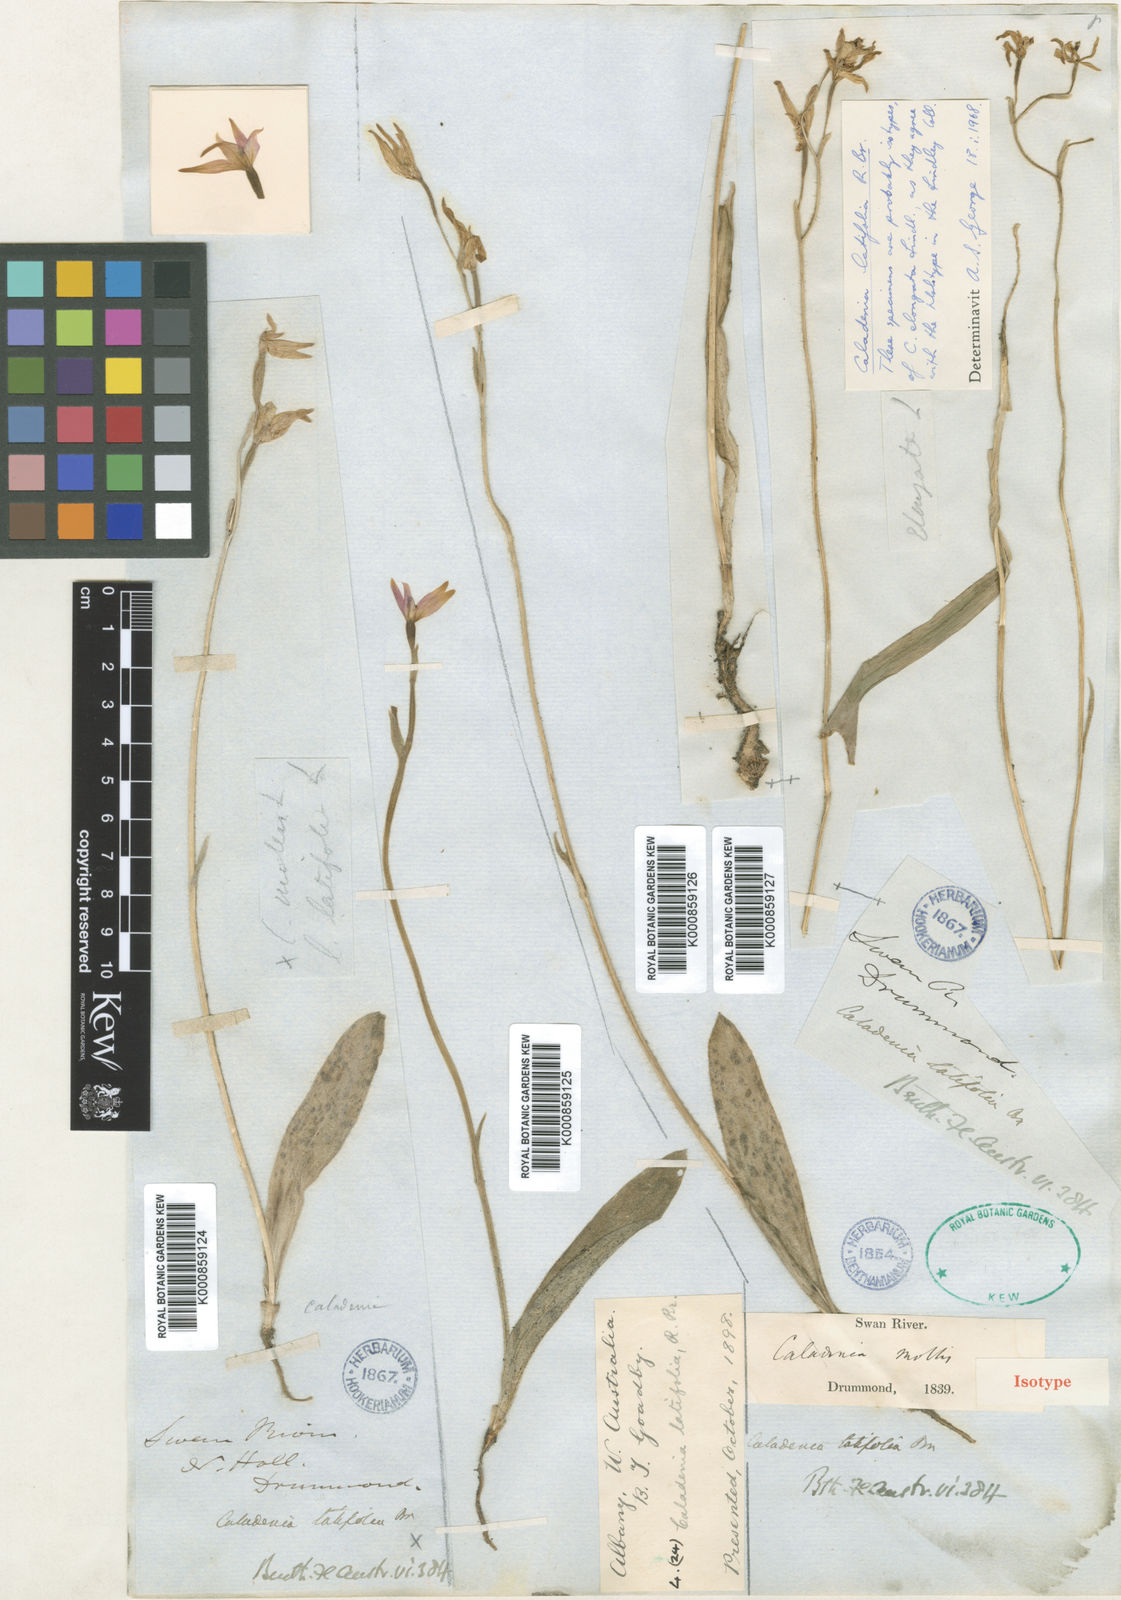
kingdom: Plantae
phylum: Tracheophyta
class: Liliopsida
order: Asparagales
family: Orchidaceae
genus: Caladenia
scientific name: Caladenia latifolia
